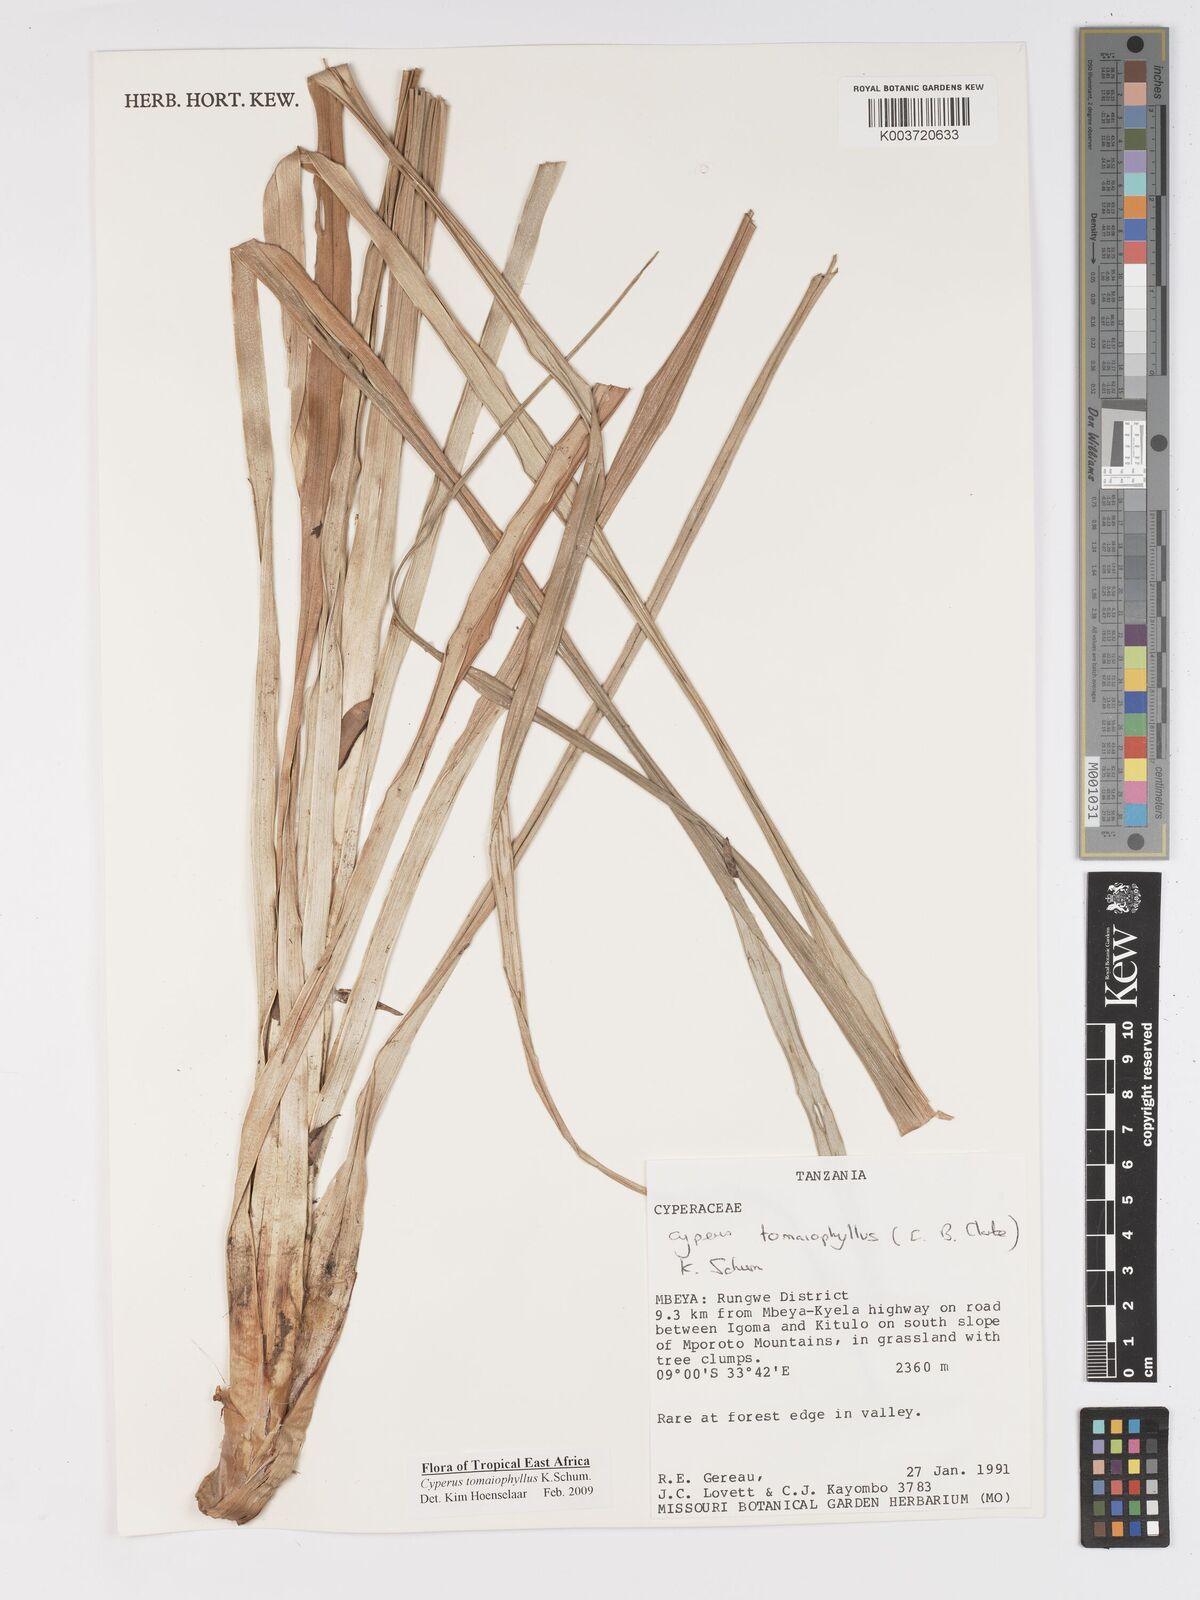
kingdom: Plantae
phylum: Tracheophyta
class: Liliopsida
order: Poales
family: Cyperaceae
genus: Cyperus
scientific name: Cyperus tomaiophyllus
